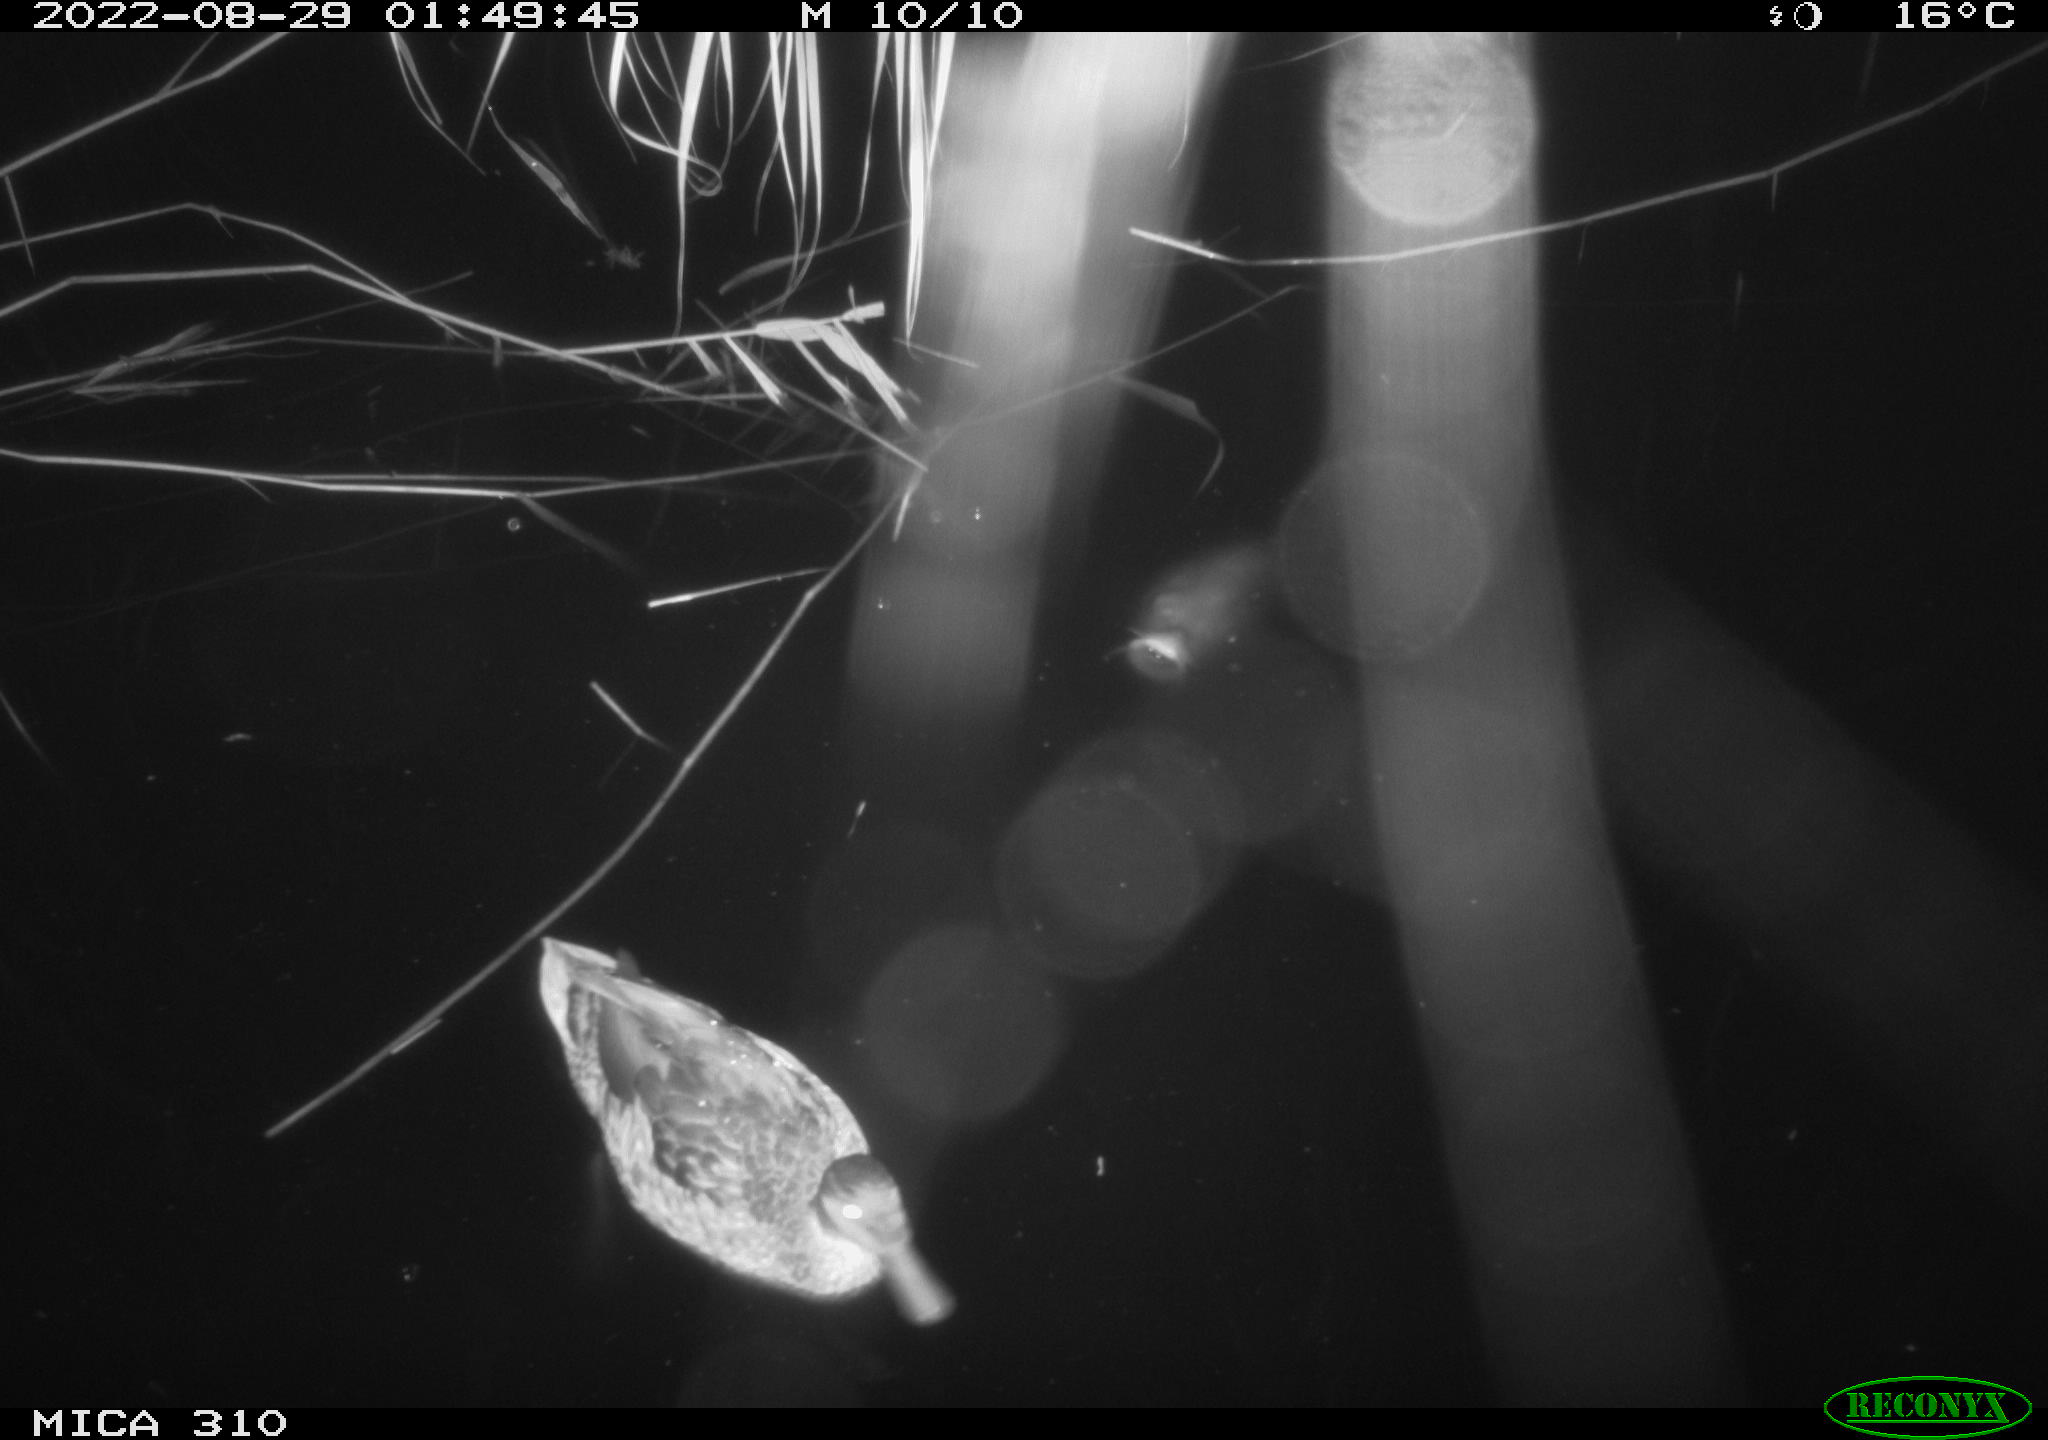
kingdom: Animalia
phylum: Chordata
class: Aves
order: Anseriformes
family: Anatidae
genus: Anas
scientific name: Anas platyrhynchos
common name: Mallard
